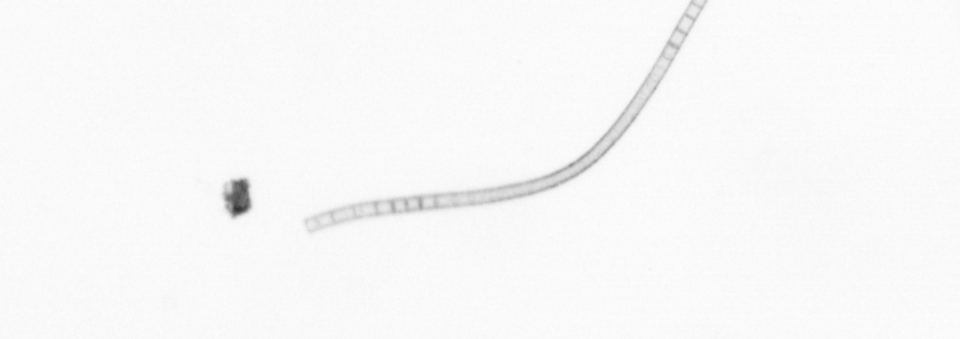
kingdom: Chromista
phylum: Ochrophyta
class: Bacillariophyceae
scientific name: Bacillariophyceae
